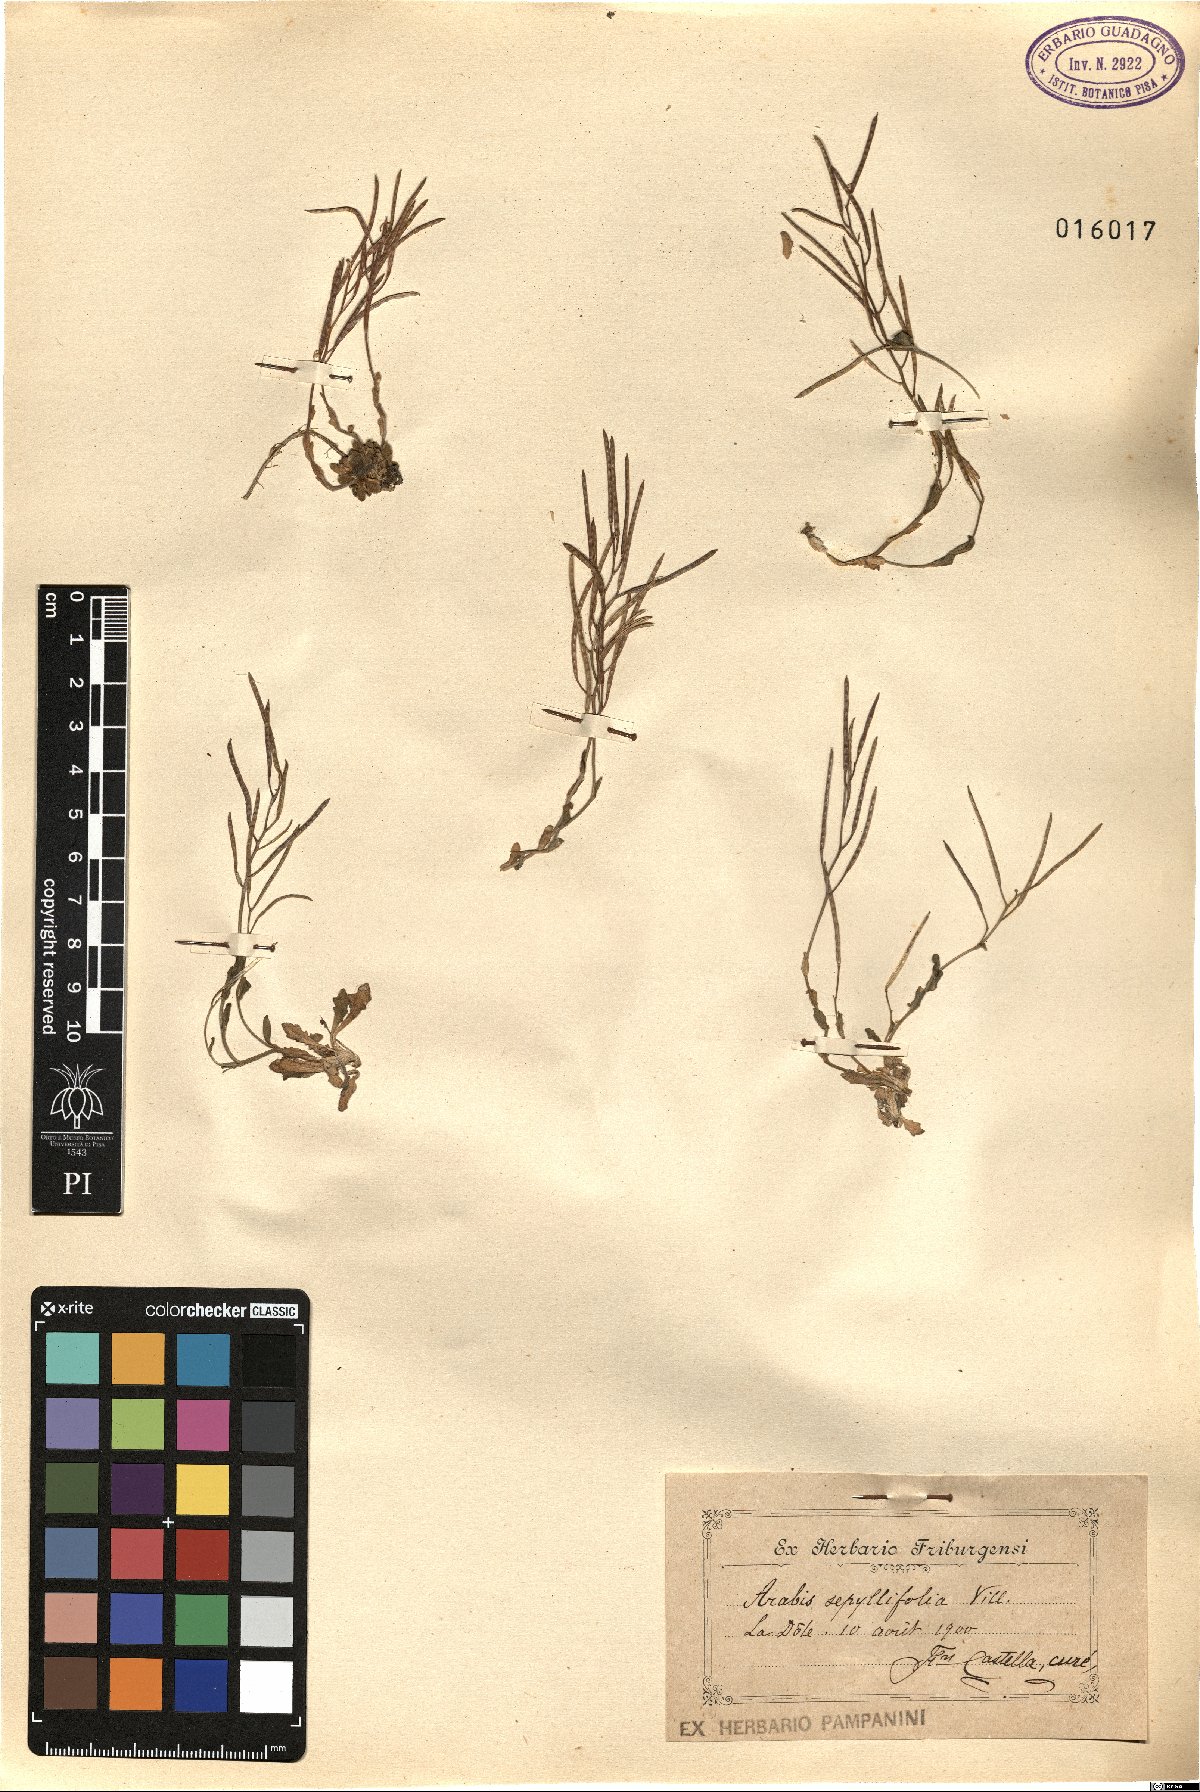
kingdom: Plantae
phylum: Tracheophyta
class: Magnoliopsida
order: Brassicales
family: Brassicaceae
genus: Arabis
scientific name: Arabis serpyllifolia
